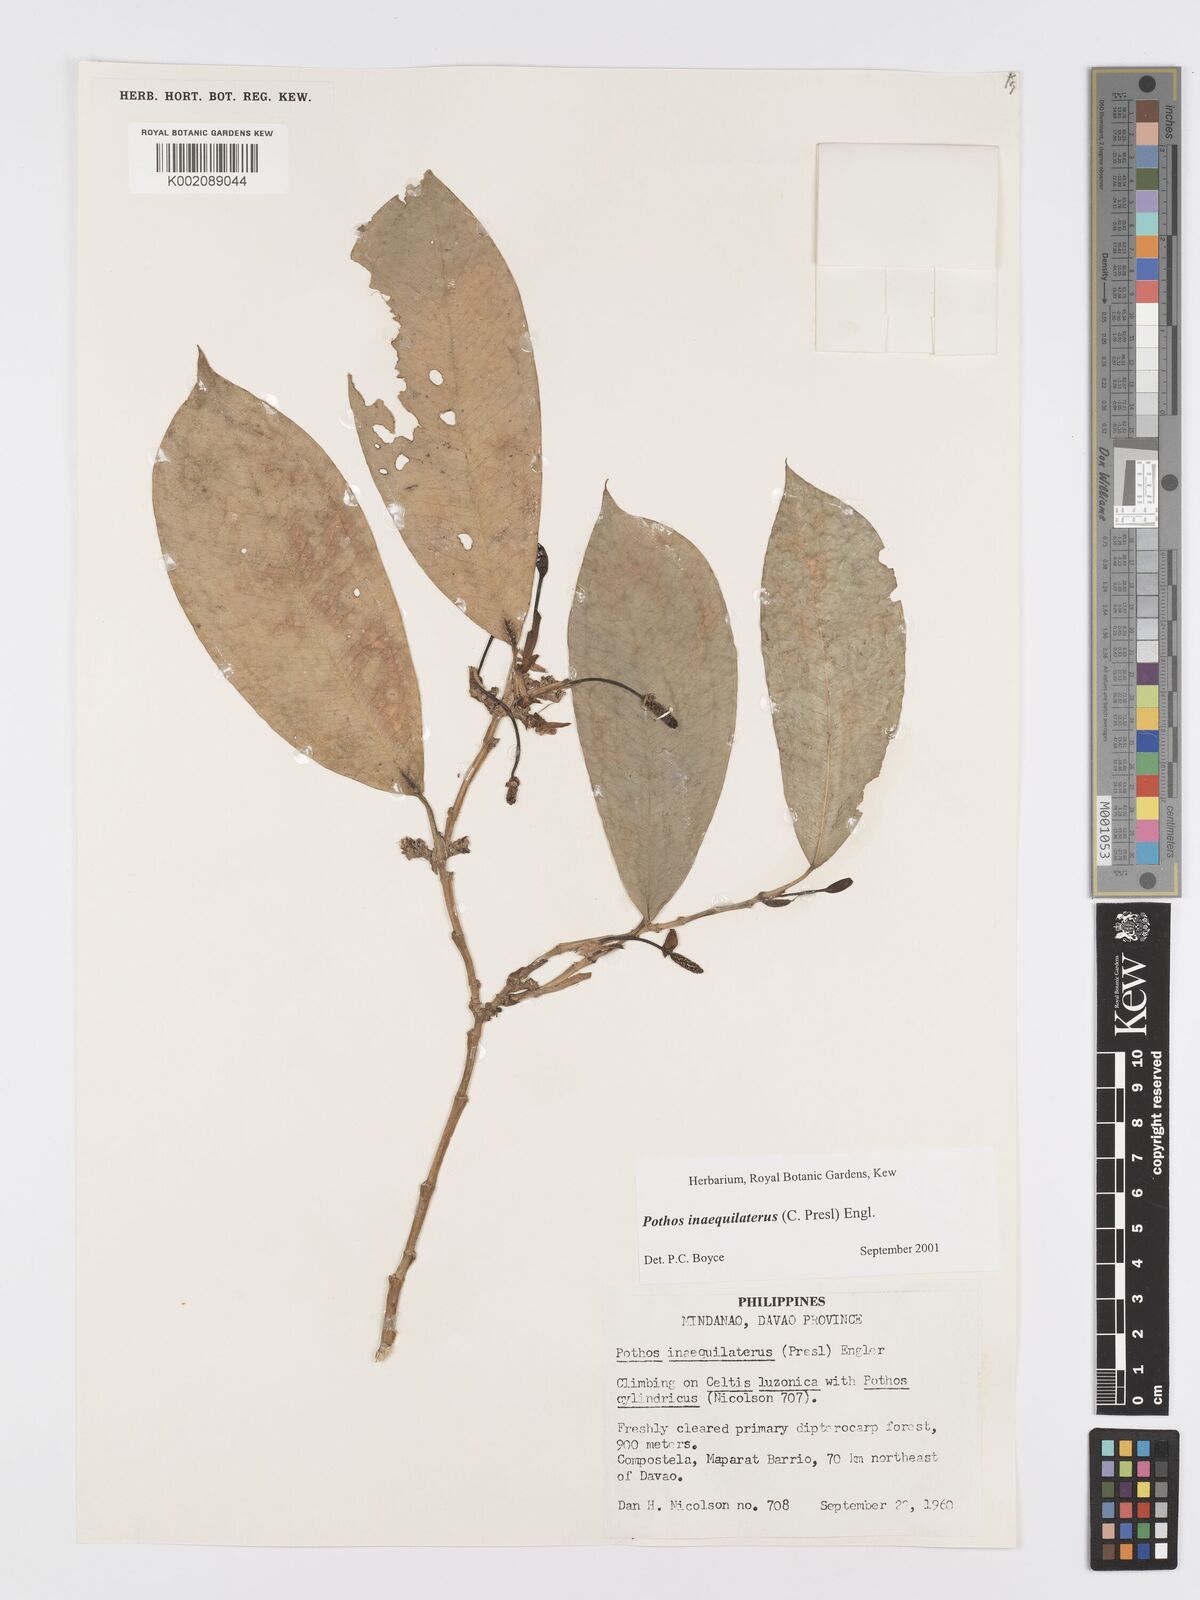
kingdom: Plantae
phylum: Tracheophyta
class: Liliopsida
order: Alismatales
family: Araceae
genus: Pothos
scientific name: Pothos inaequilaterus
